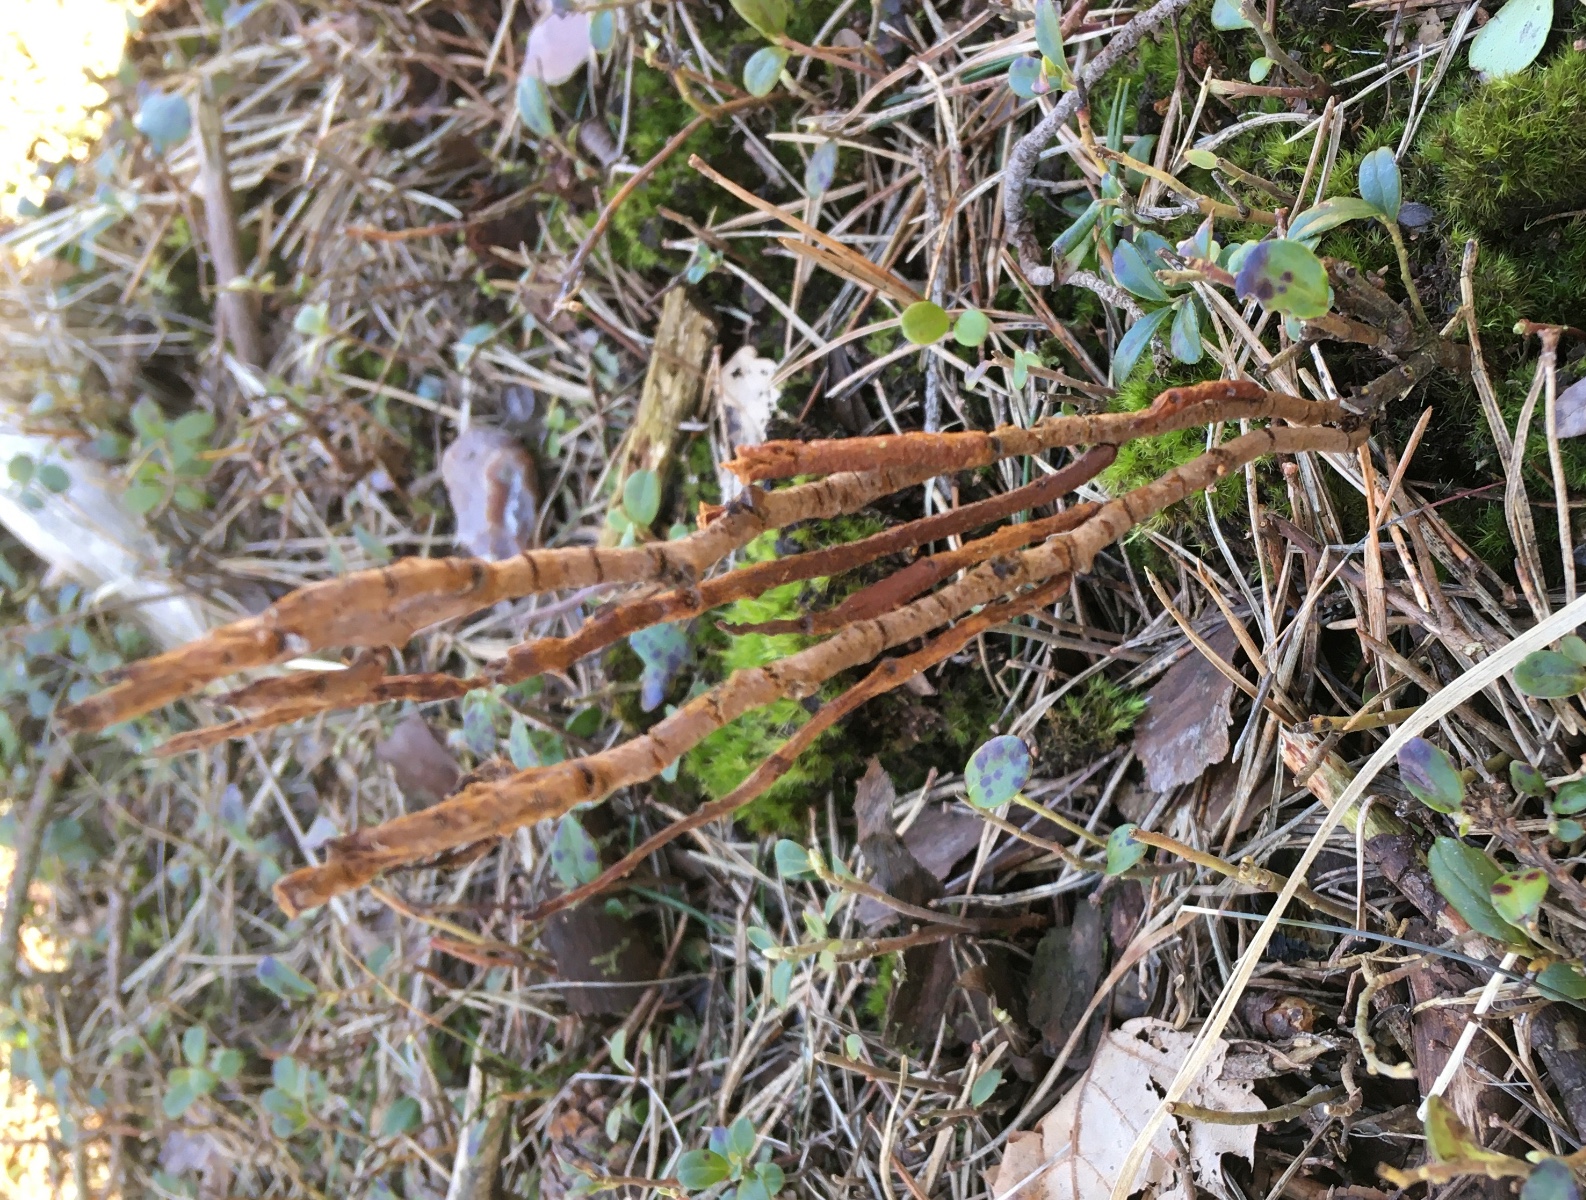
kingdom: Fungi
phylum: Basidiomycota
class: Pucciniomycetes
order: Pucciniales
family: Pucciniastraceae
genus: Calyptospora
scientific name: Calyptospora columnaris
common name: Huckleberry broom rust fungus
